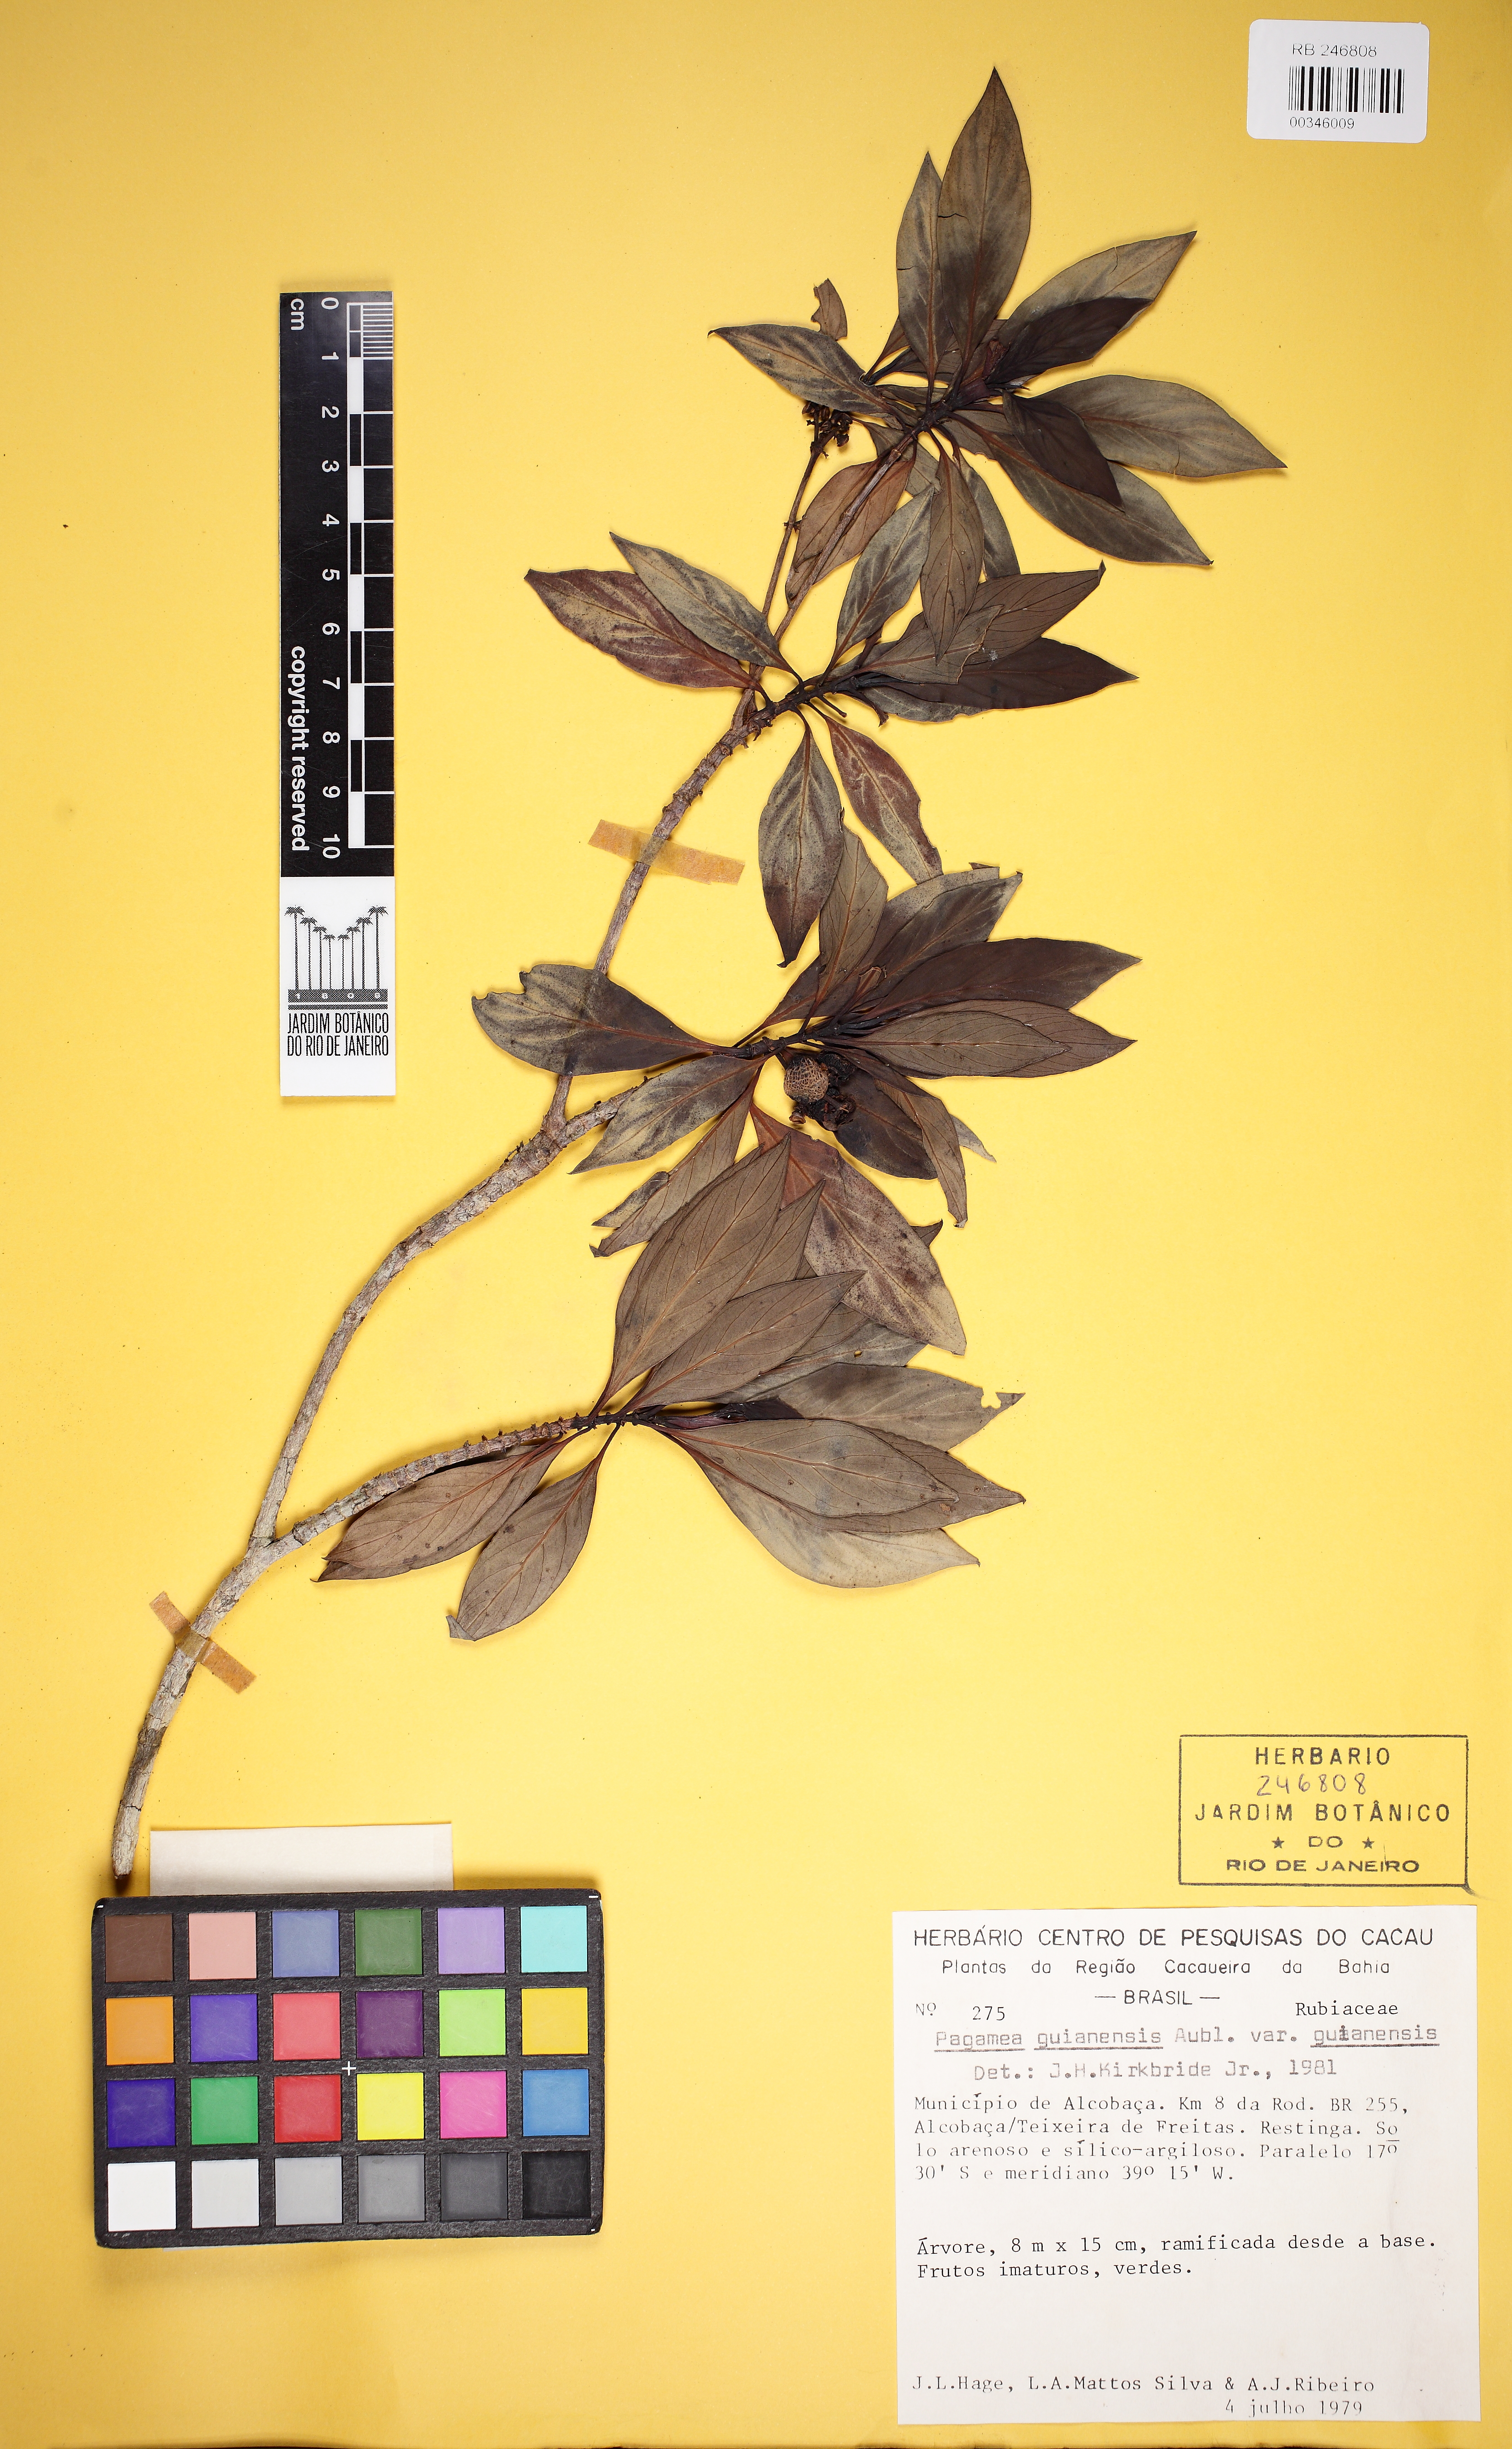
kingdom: Plantae
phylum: Tracheophyta
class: Magnoliopsida
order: Gentianales
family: Rubiaceae
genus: Pagamea
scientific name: Pagamea guianensis
